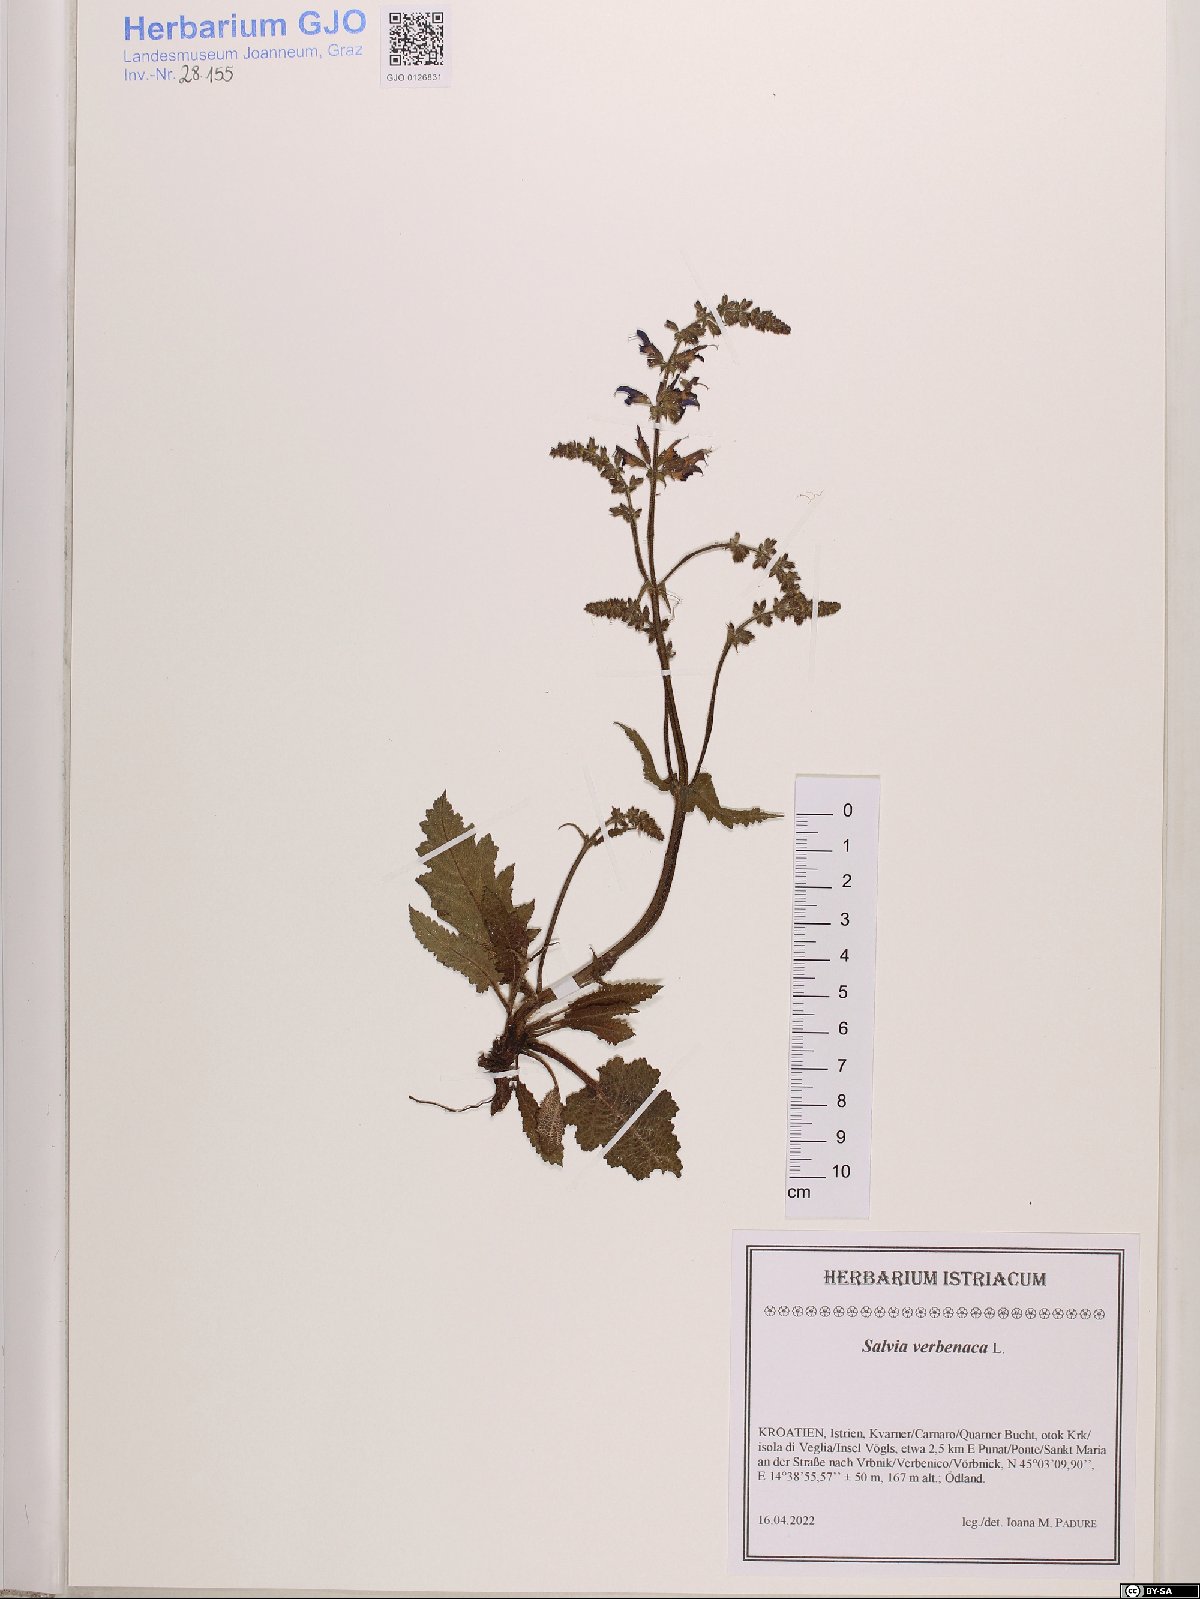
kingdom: Plantae
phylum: Tracheophyta
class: Magnoliopsida
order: Lamiales
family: Lamiaceae
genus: Salvia
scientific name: Salvia verbenaca
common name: Wild clary
